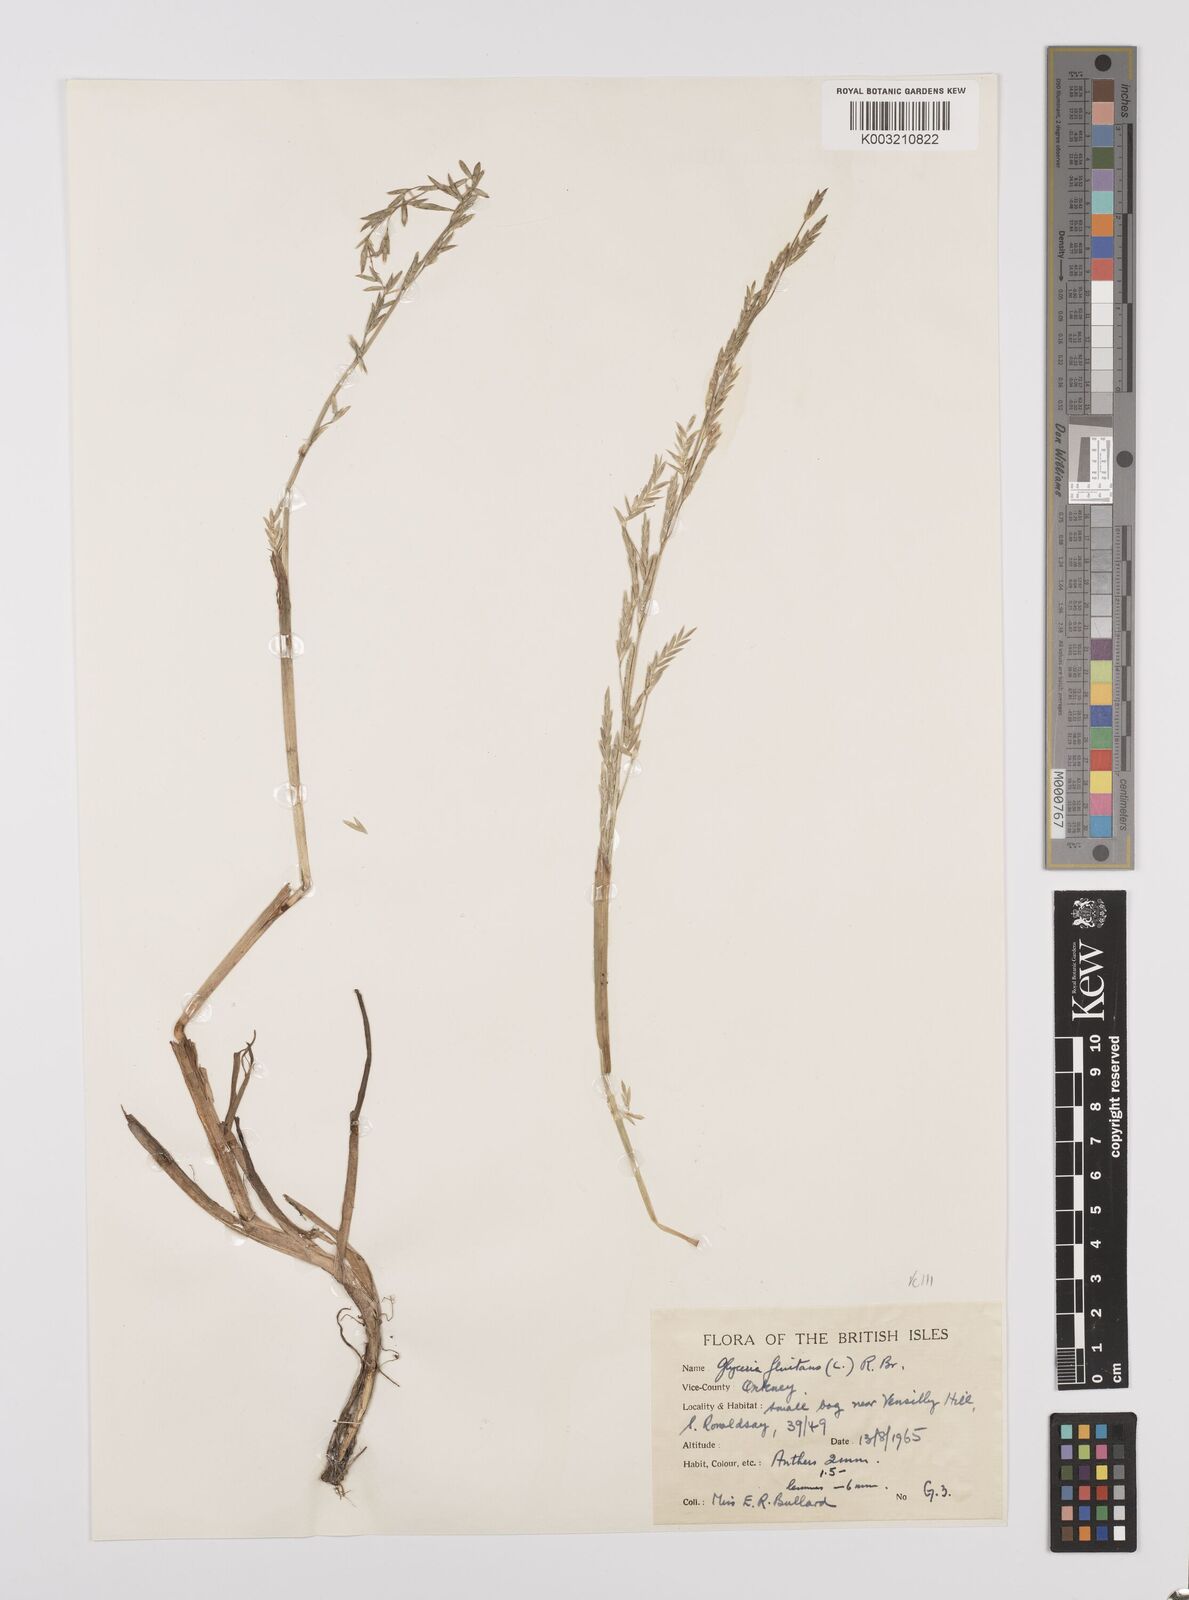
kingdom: Plantae
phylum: Tracheophyta
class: Liliopsida
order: Poales
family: Poaceae
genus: Glyceria
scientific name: Glyceria fluitans
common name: Floating sweet-grass
